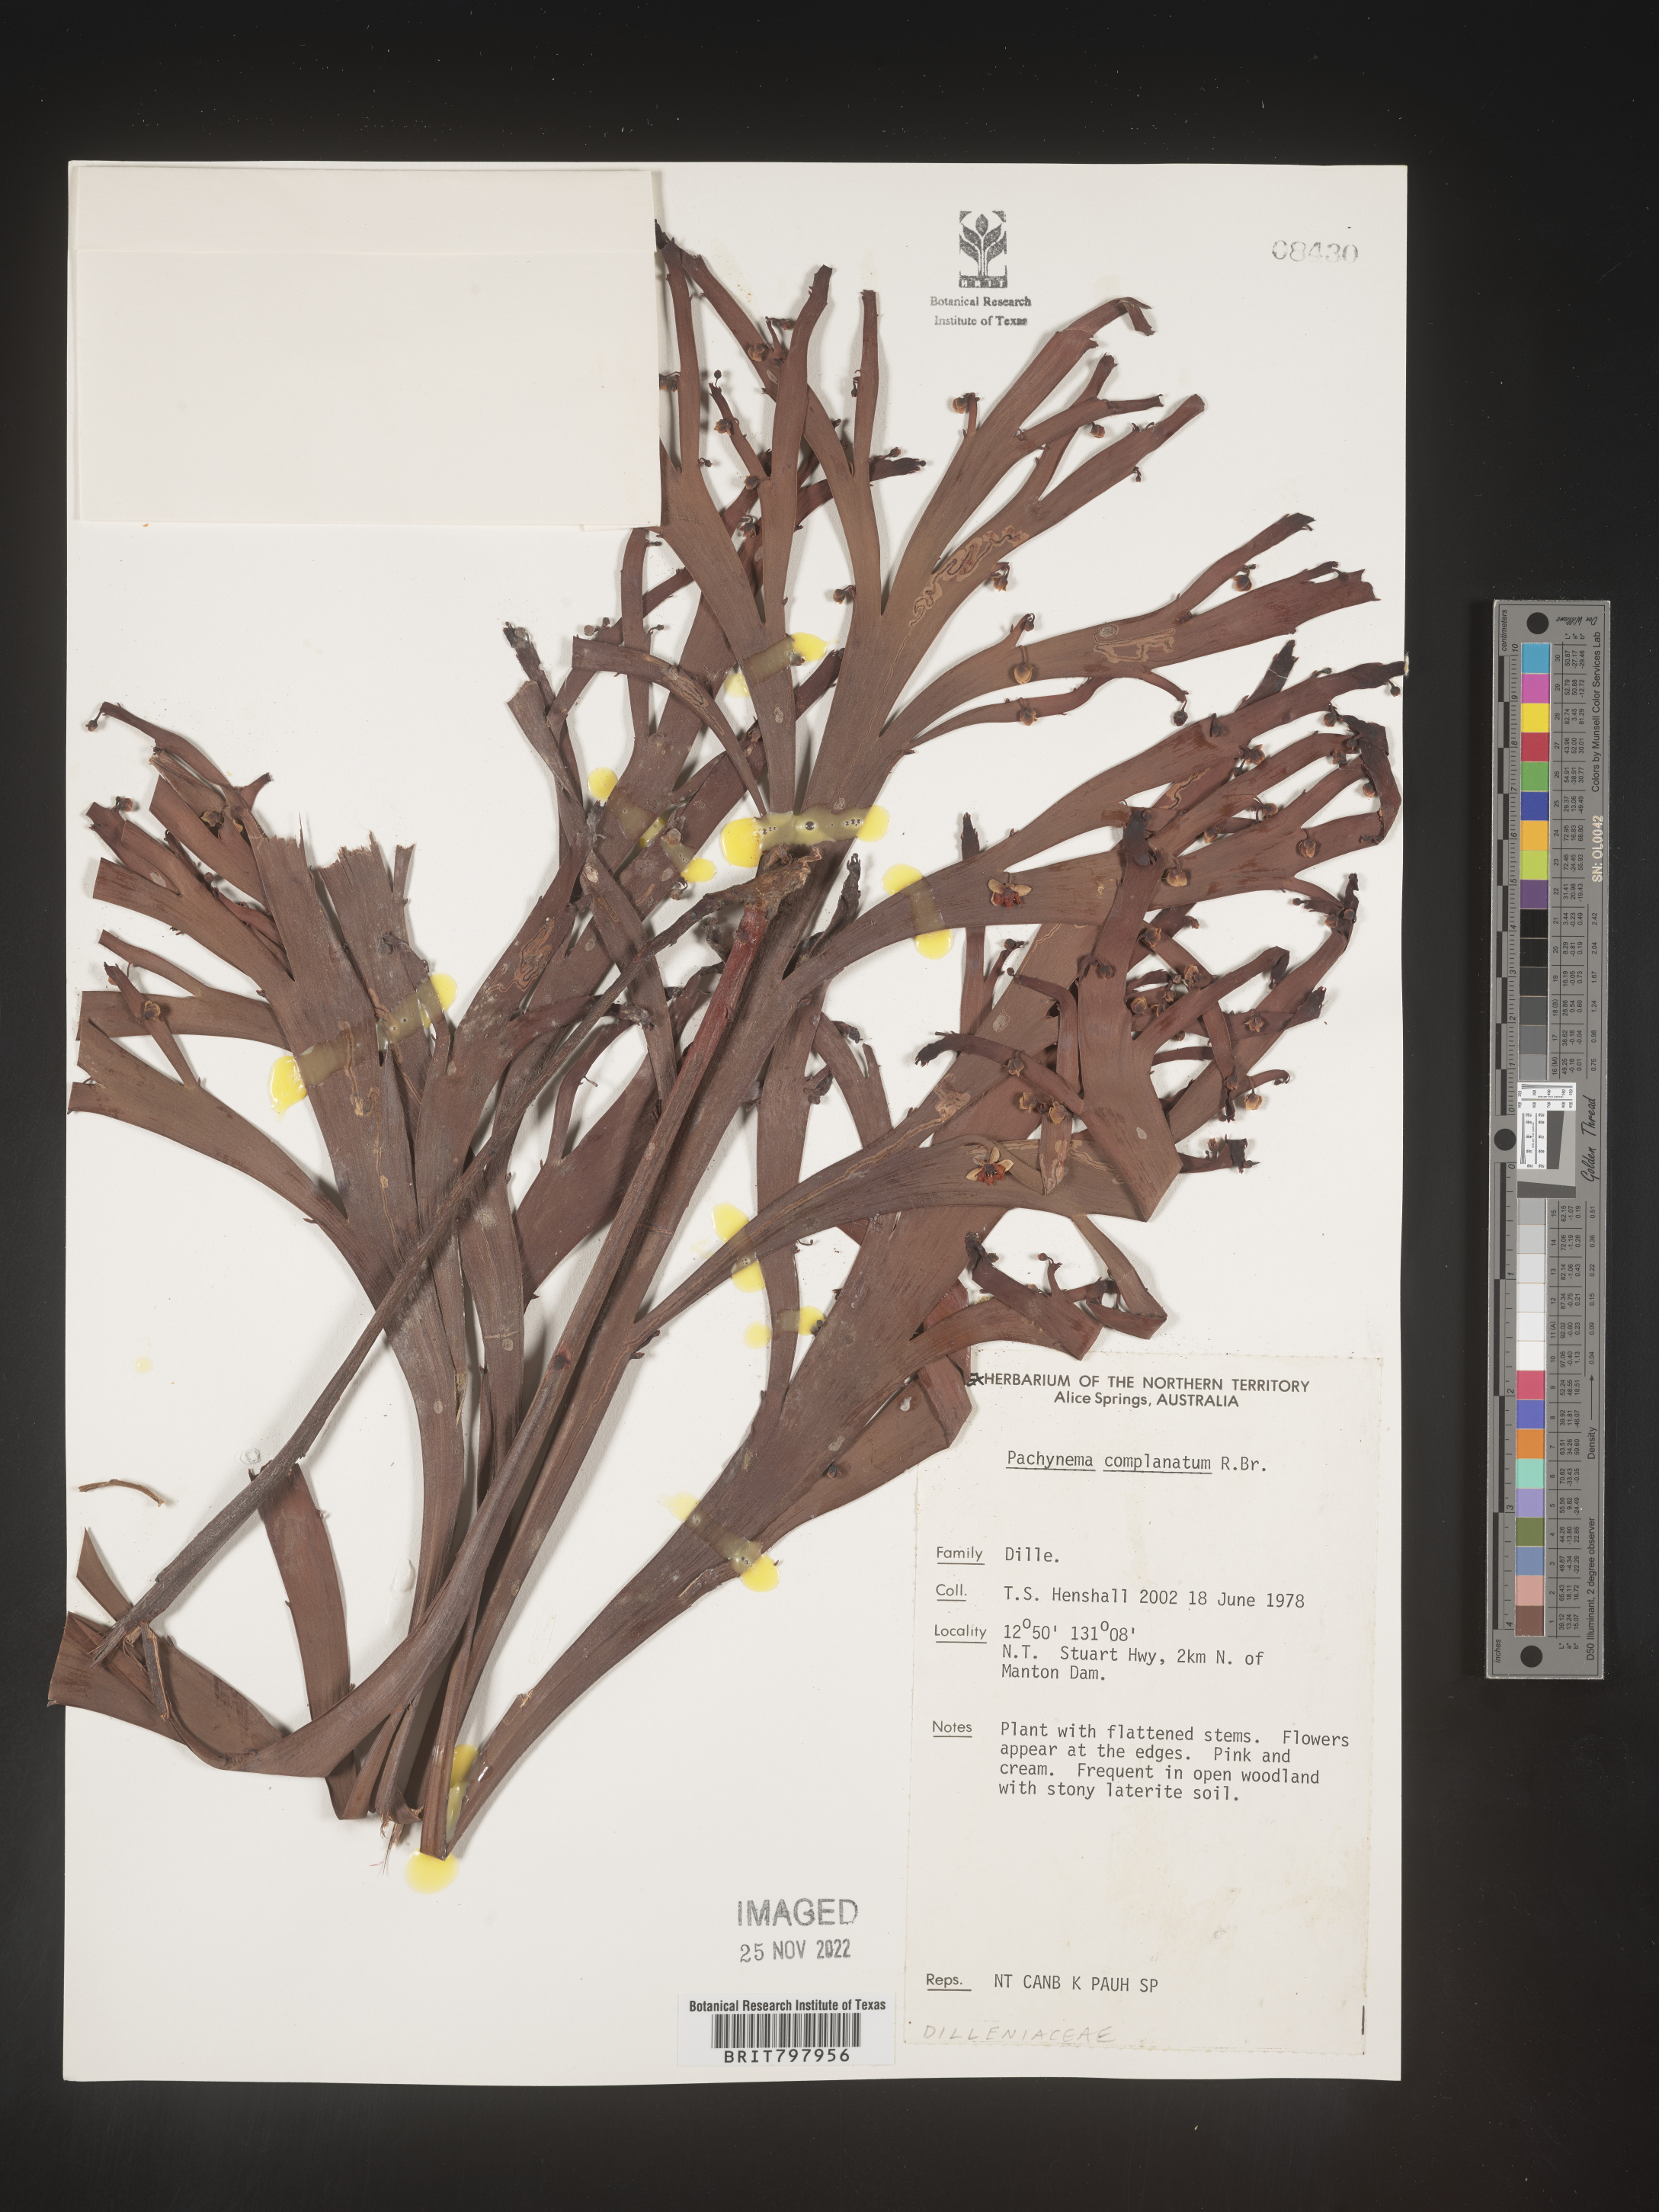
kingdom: Plantae
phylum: Tracheophyta
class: Magnoliopsida
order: Dilleniales
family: Dilleniaceae
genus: Hibbertia
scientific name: Hibbertia persquamata
